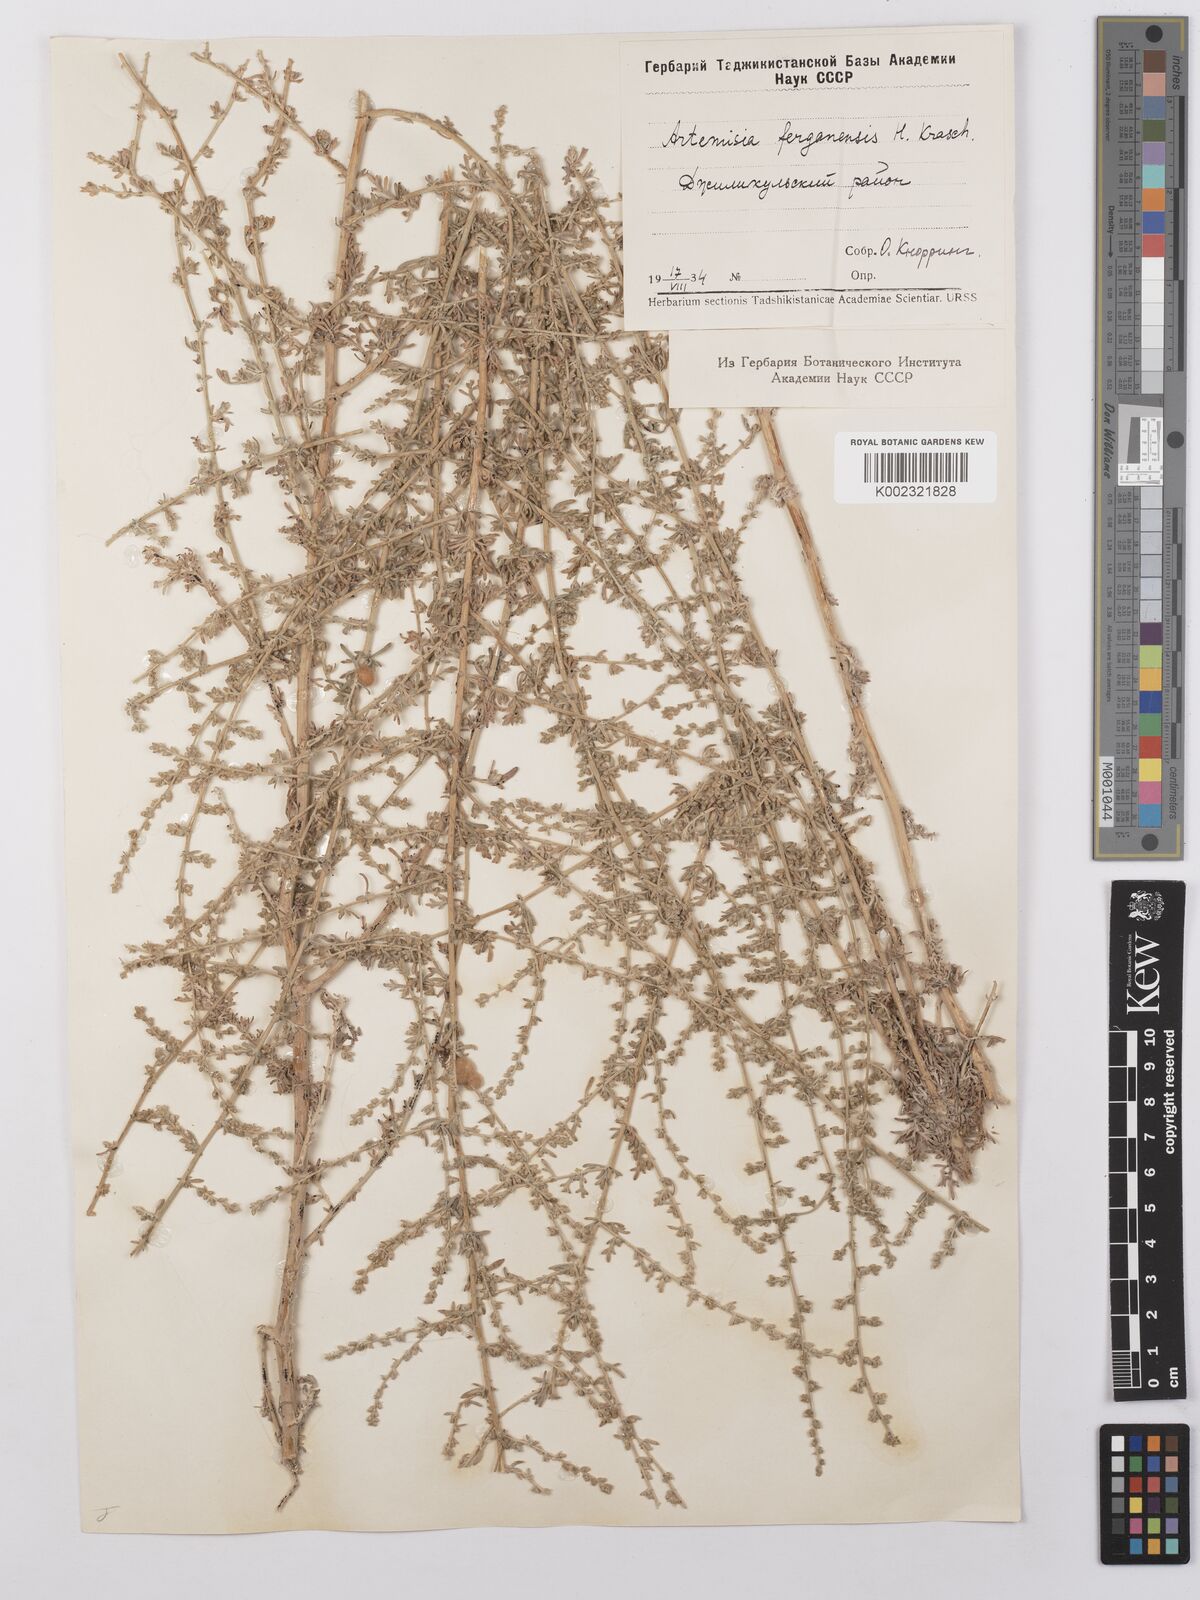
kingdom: Plantae
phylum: Tracheophyta
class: Magnoliopsida
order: Asterales
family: Asteraceae
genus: Artemisia
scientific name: Artemisia ferganensis
